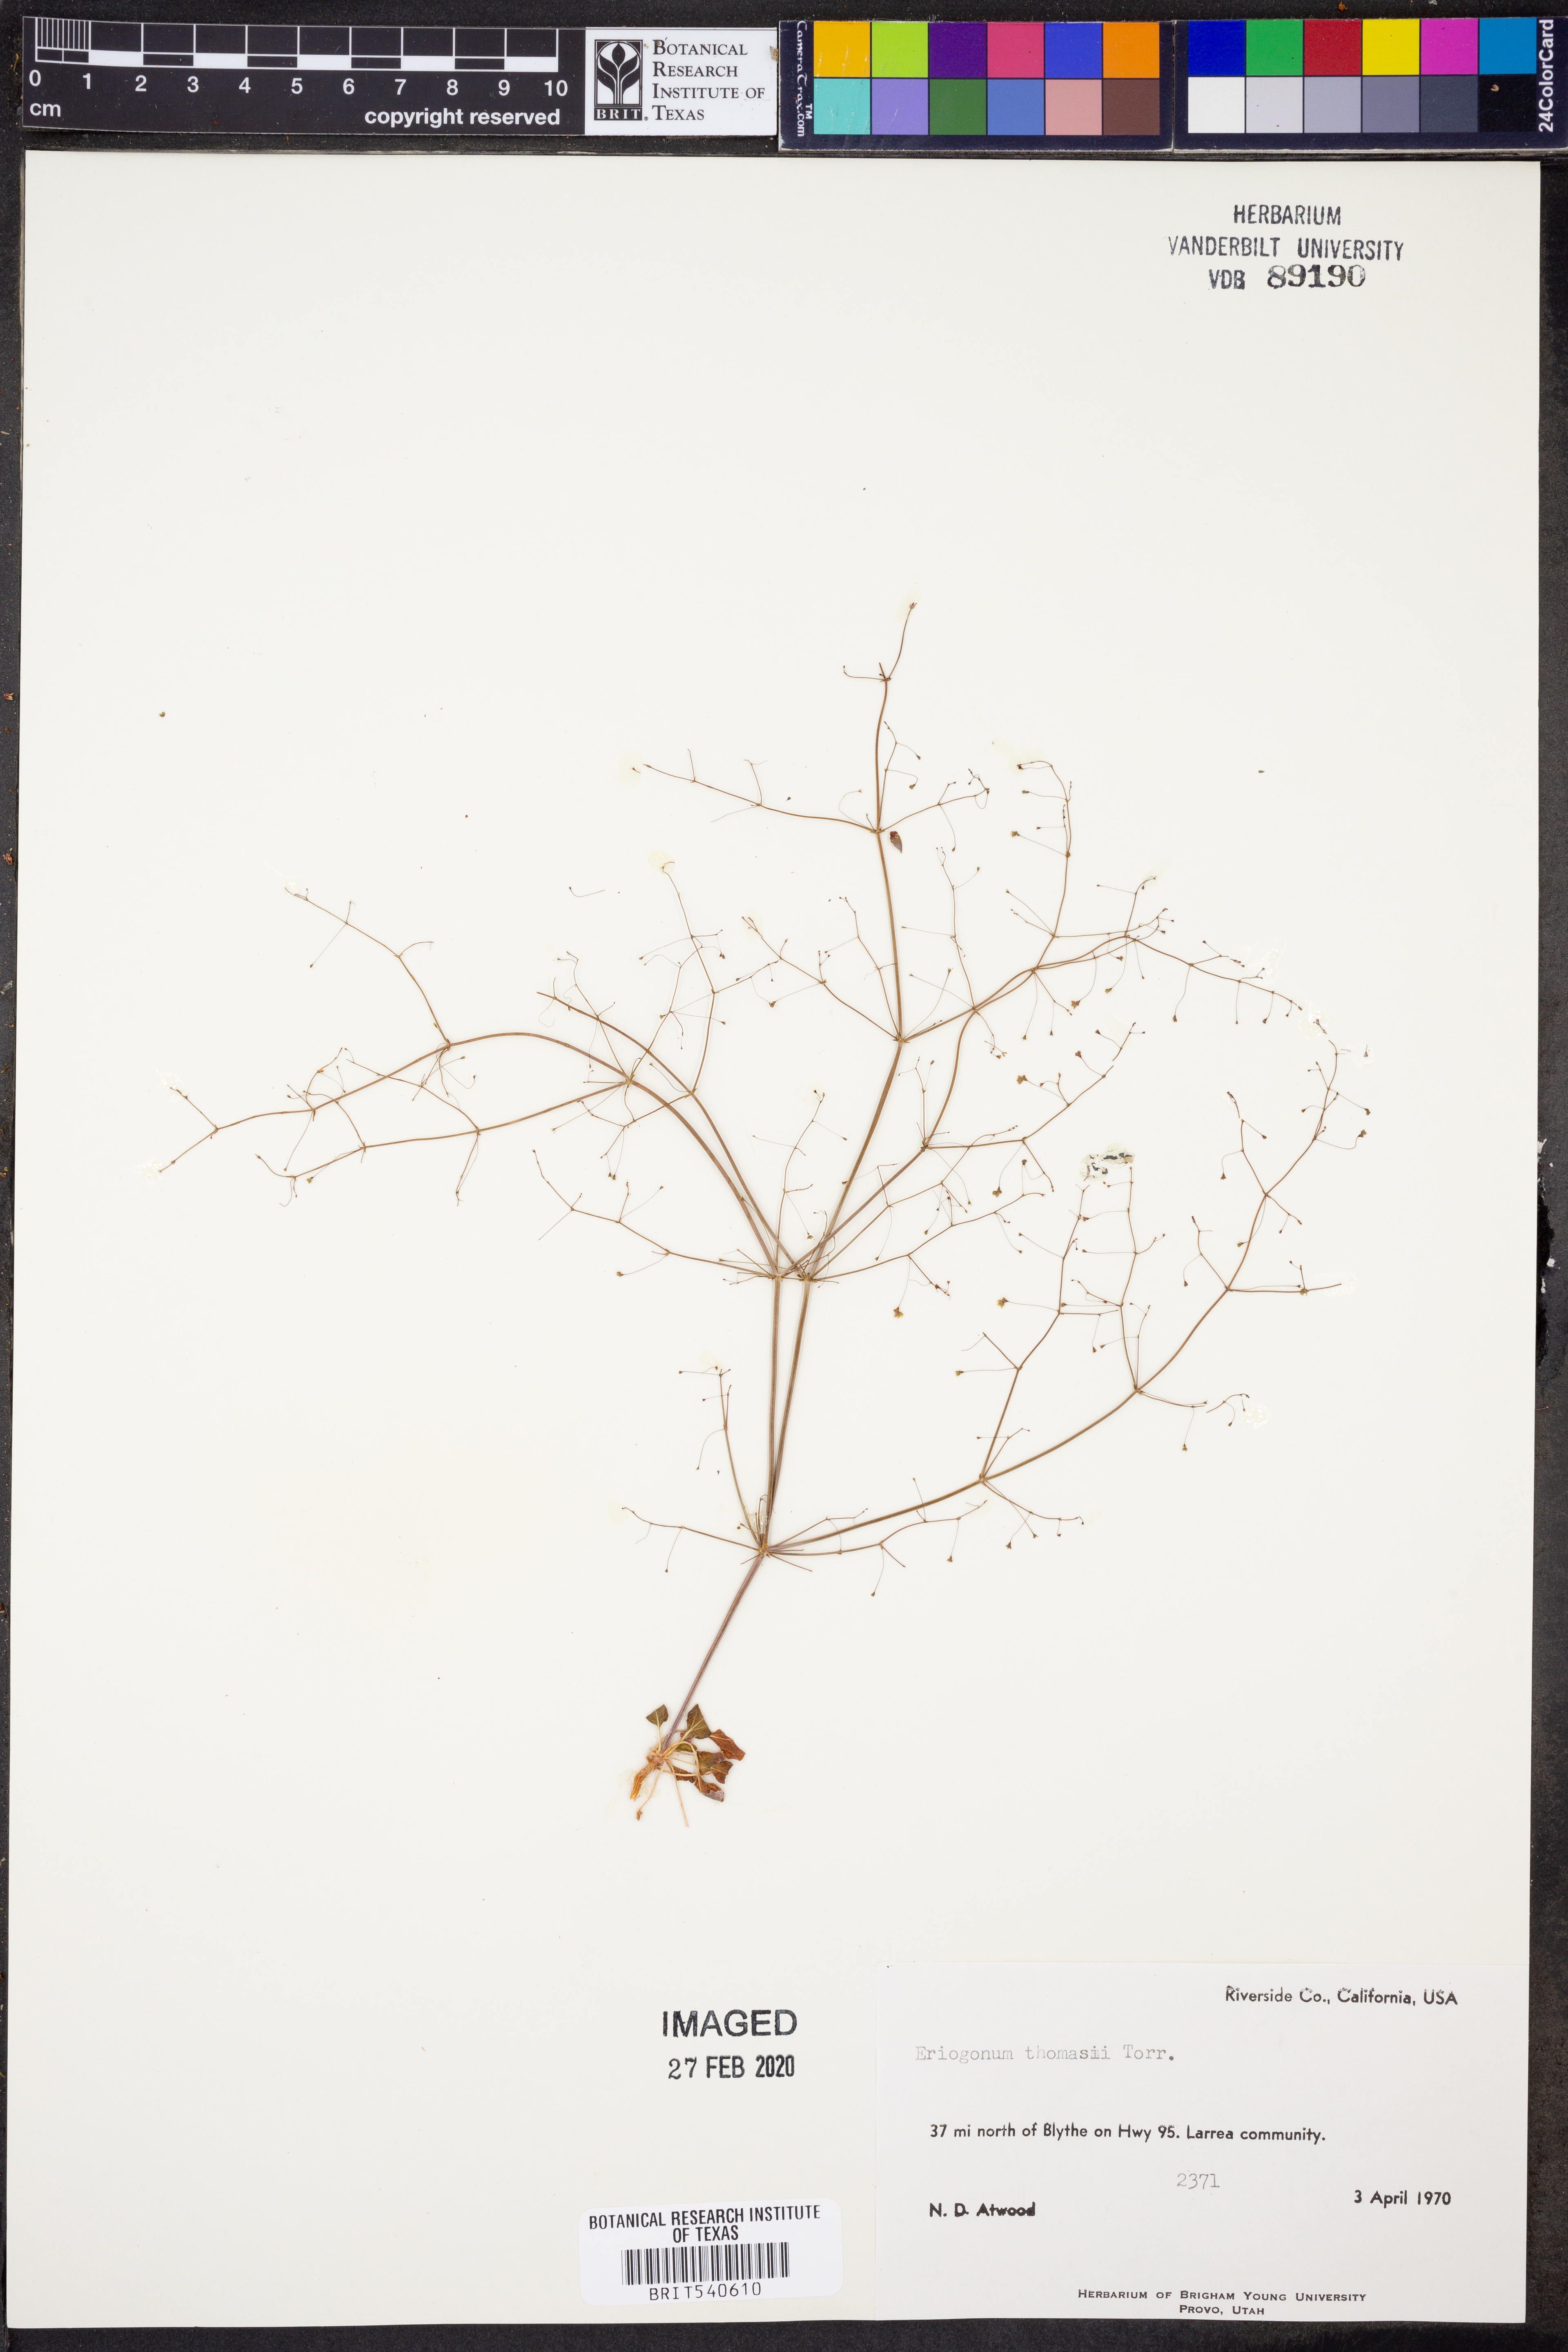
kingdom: Plantae
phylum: Tracheophyta
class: Magnoliopsida
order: Caryophyllales
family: Polygonaceae
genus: Eriogonum
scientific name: Eriogonum thomasii
